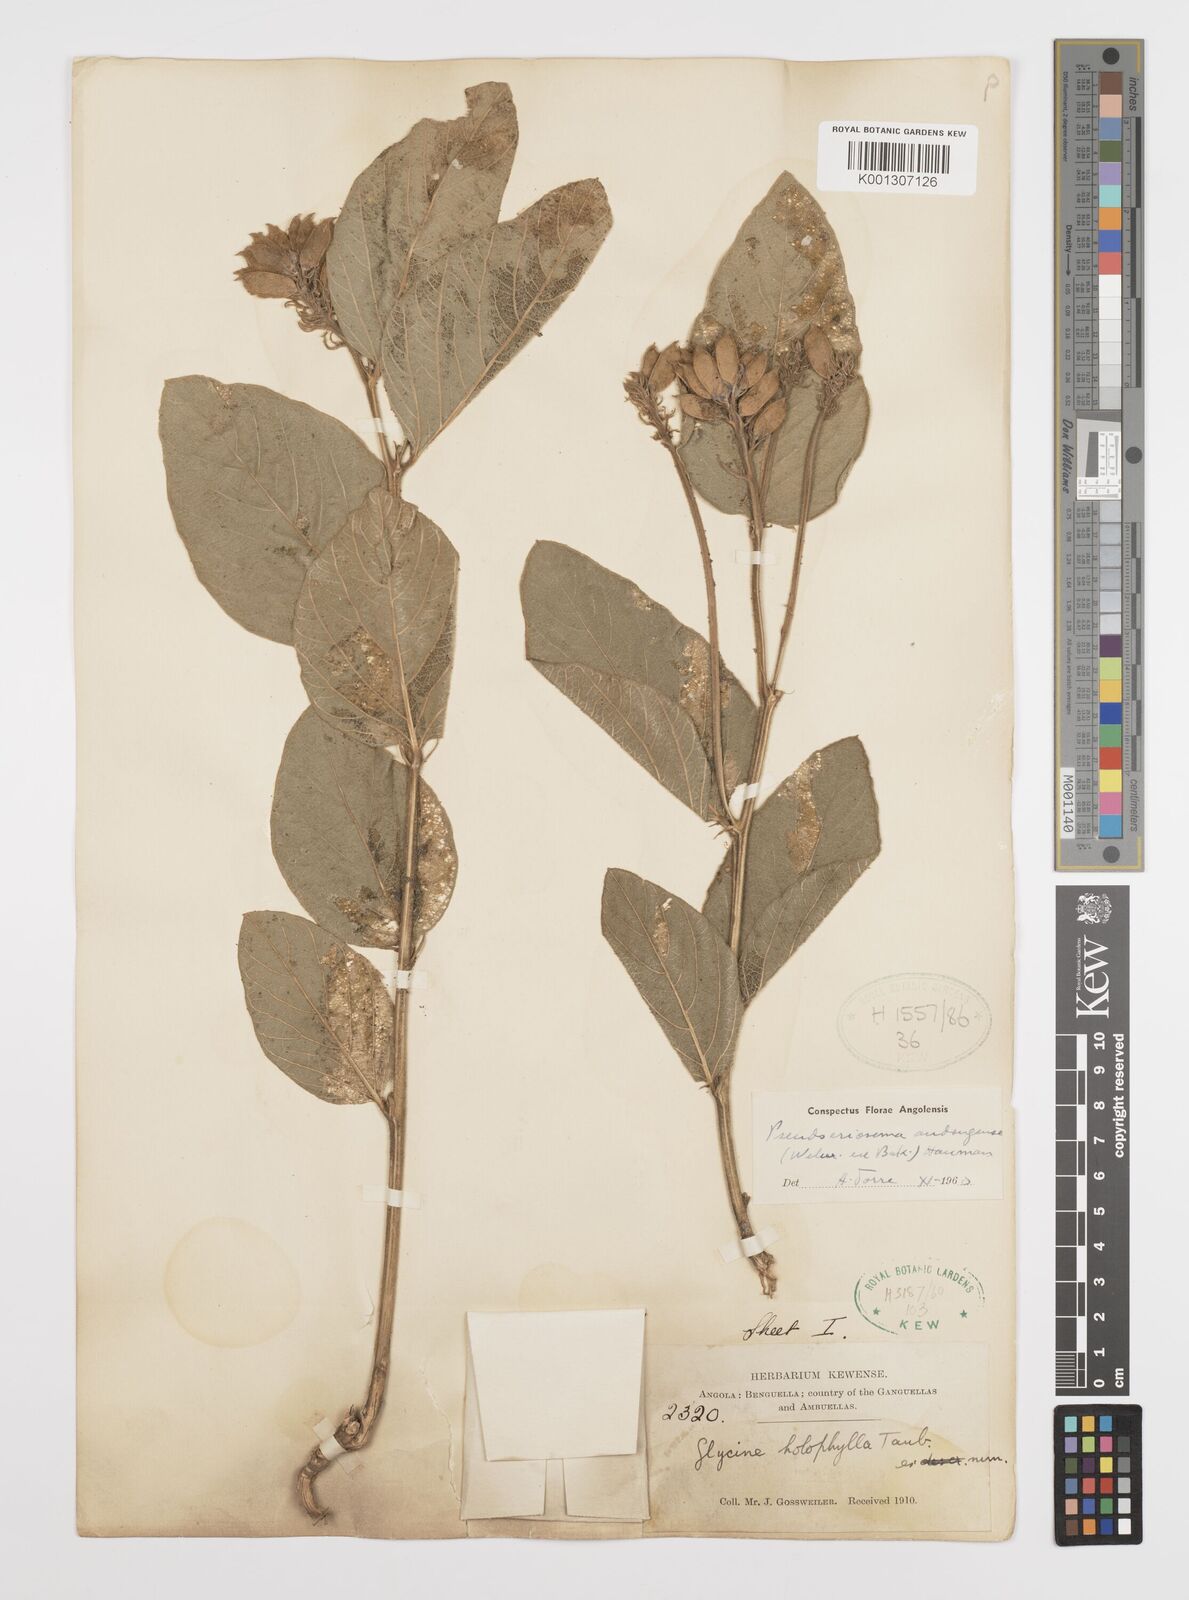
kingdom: Plantae
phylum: Tracheophyta
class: Magnoliopsida
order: Fabales
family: Fabaceae
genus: Pseudoeriosema
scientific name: Pseudoeriosema andongense
